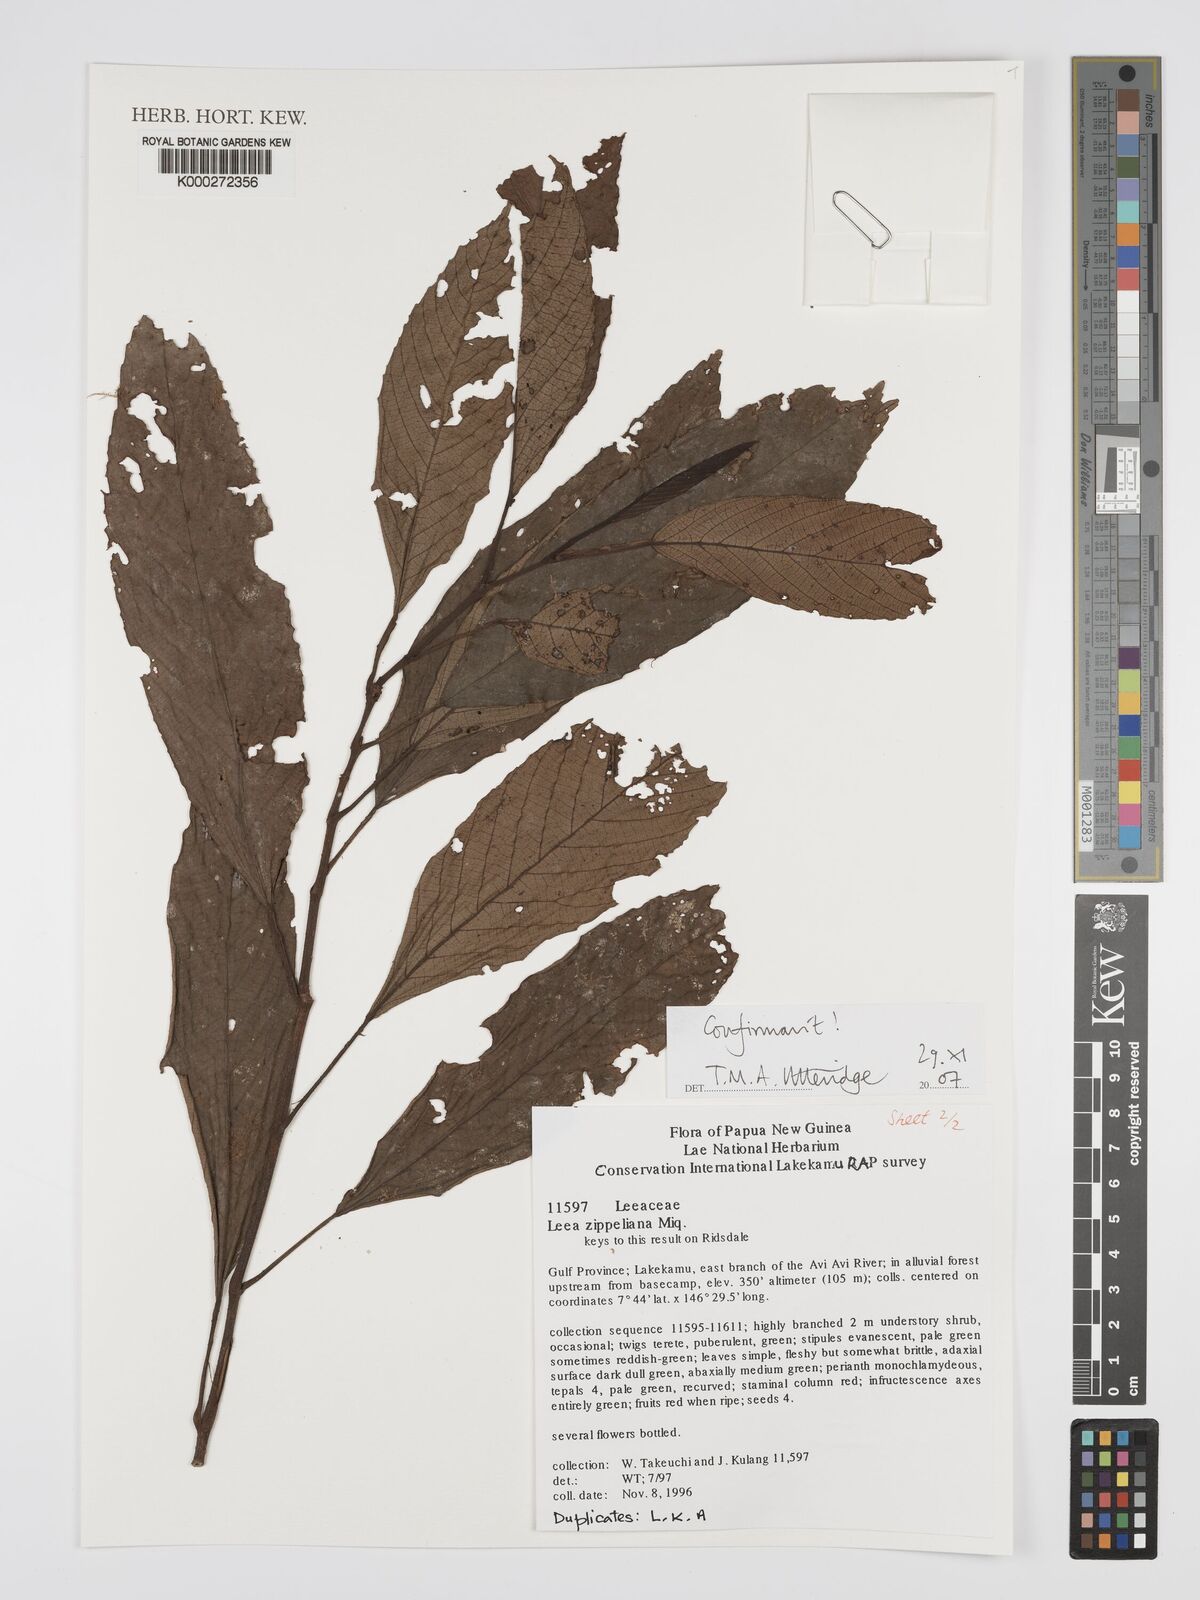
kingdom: Plantae
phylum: Tracheophyta
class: Magnoliopsida
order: Vitales
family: Vitaceae
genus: Leea
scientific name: Leea zippeliana
